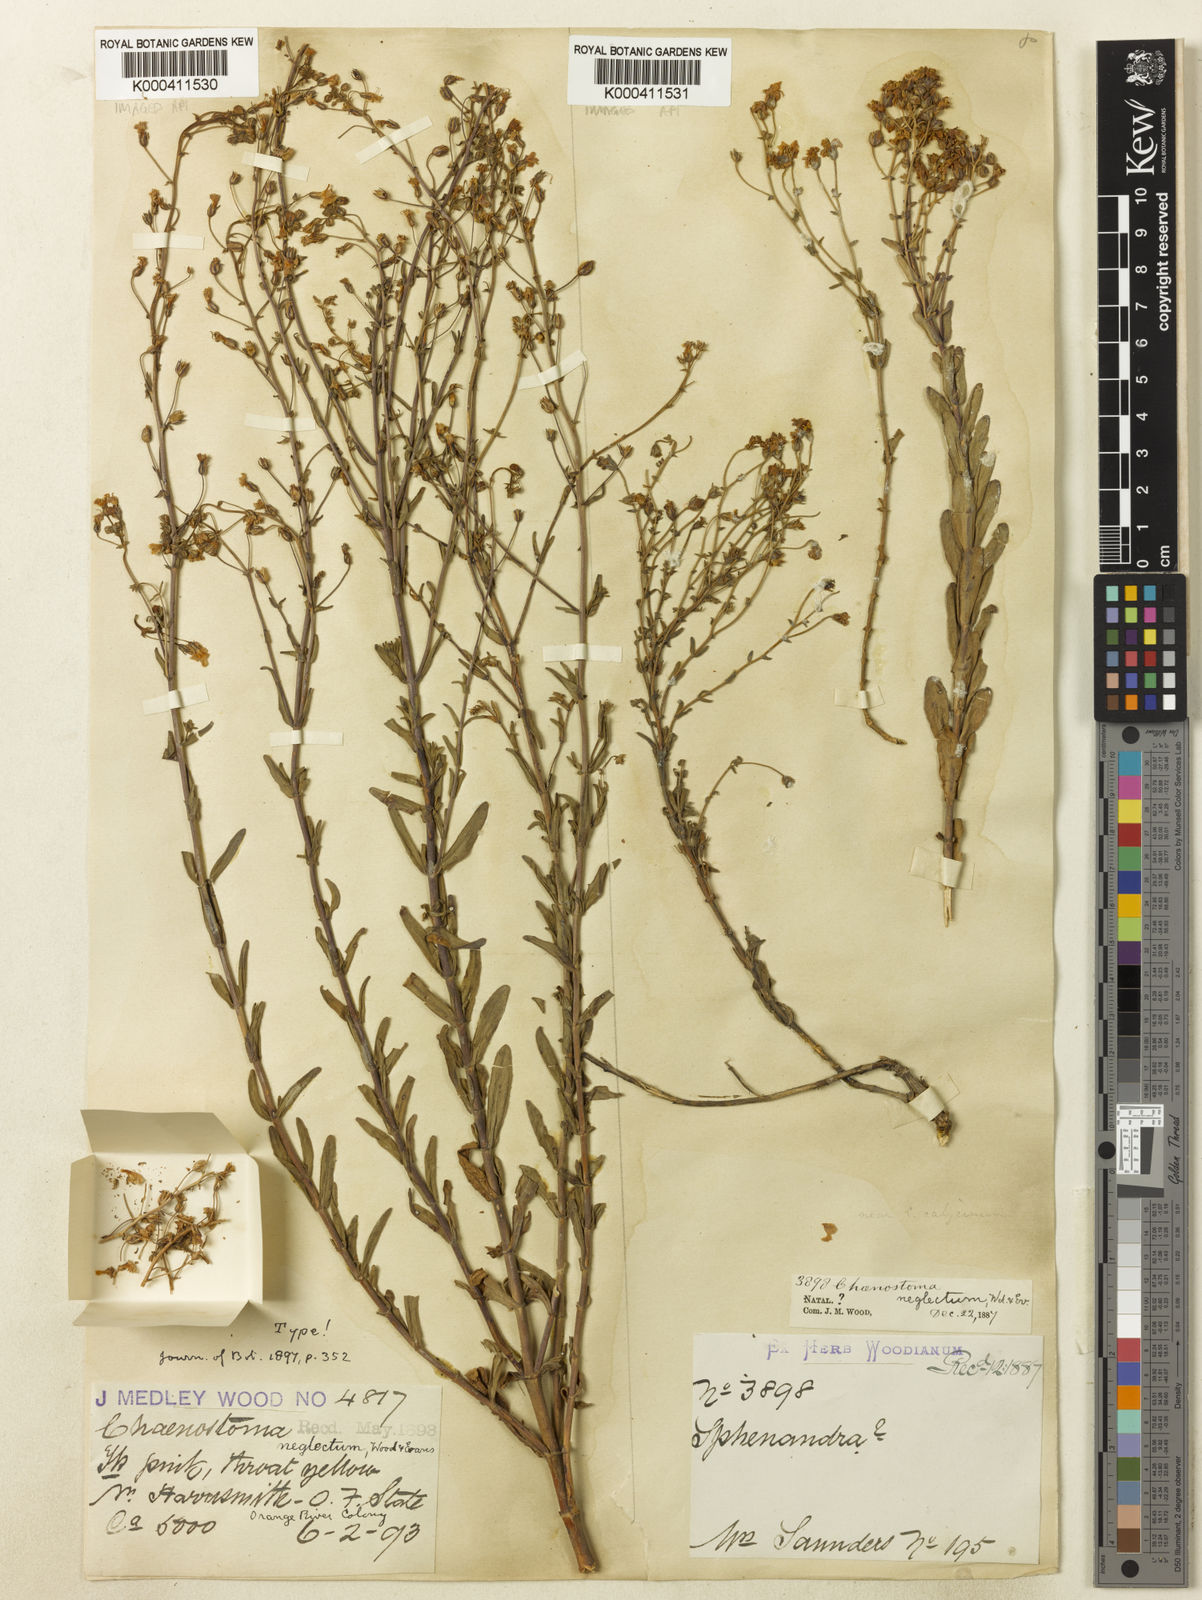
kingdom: Plantae
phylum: Tracheophyta
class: Magnoliopsida
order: Lamiales
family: Scrophulariaceae
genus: Chaenostoma
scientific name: Chaenostoma neglectum
